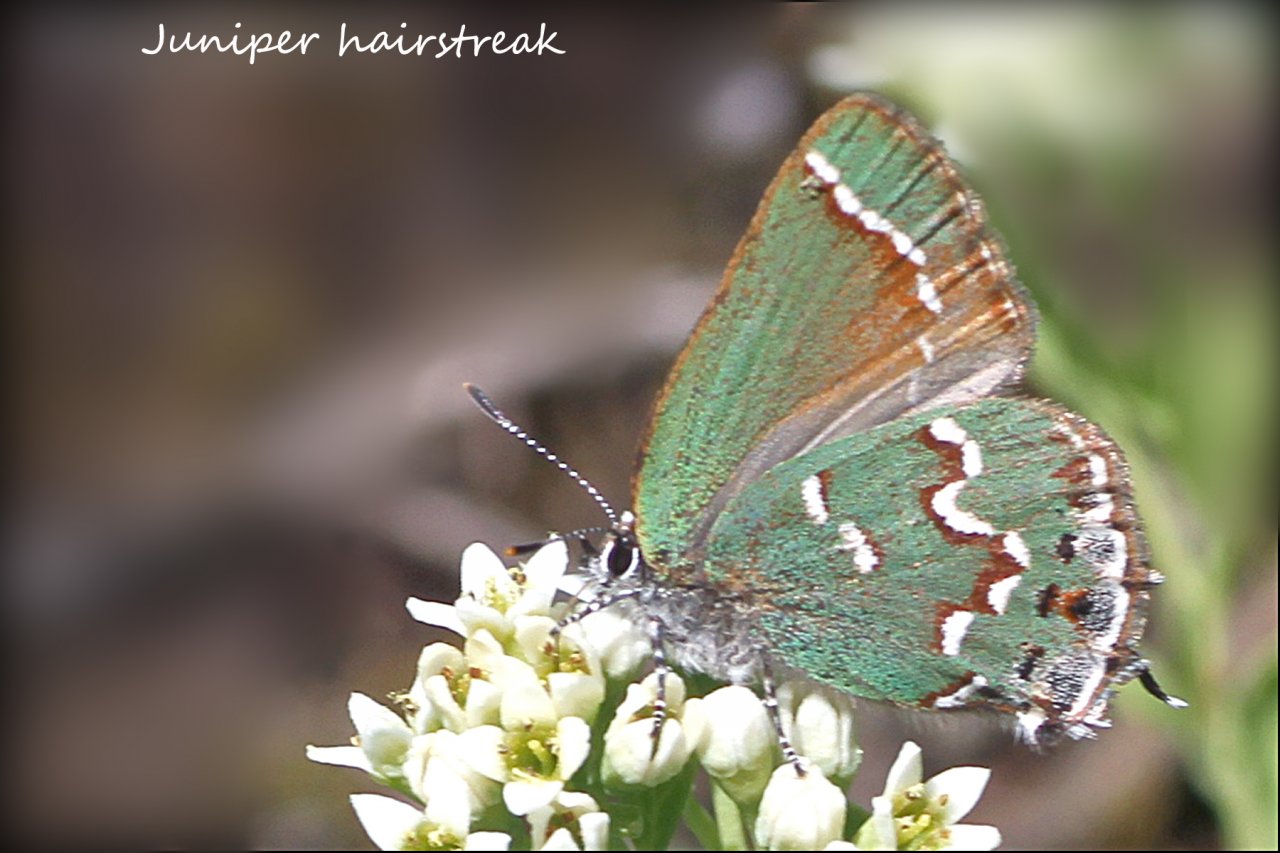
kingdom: Animalia
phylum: Arthropoda
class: Insecta
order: Lepidoptera
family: Lycaenidae
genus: Mitoura
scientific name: Mitoura gryneus
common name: Juniper Hairstreak
